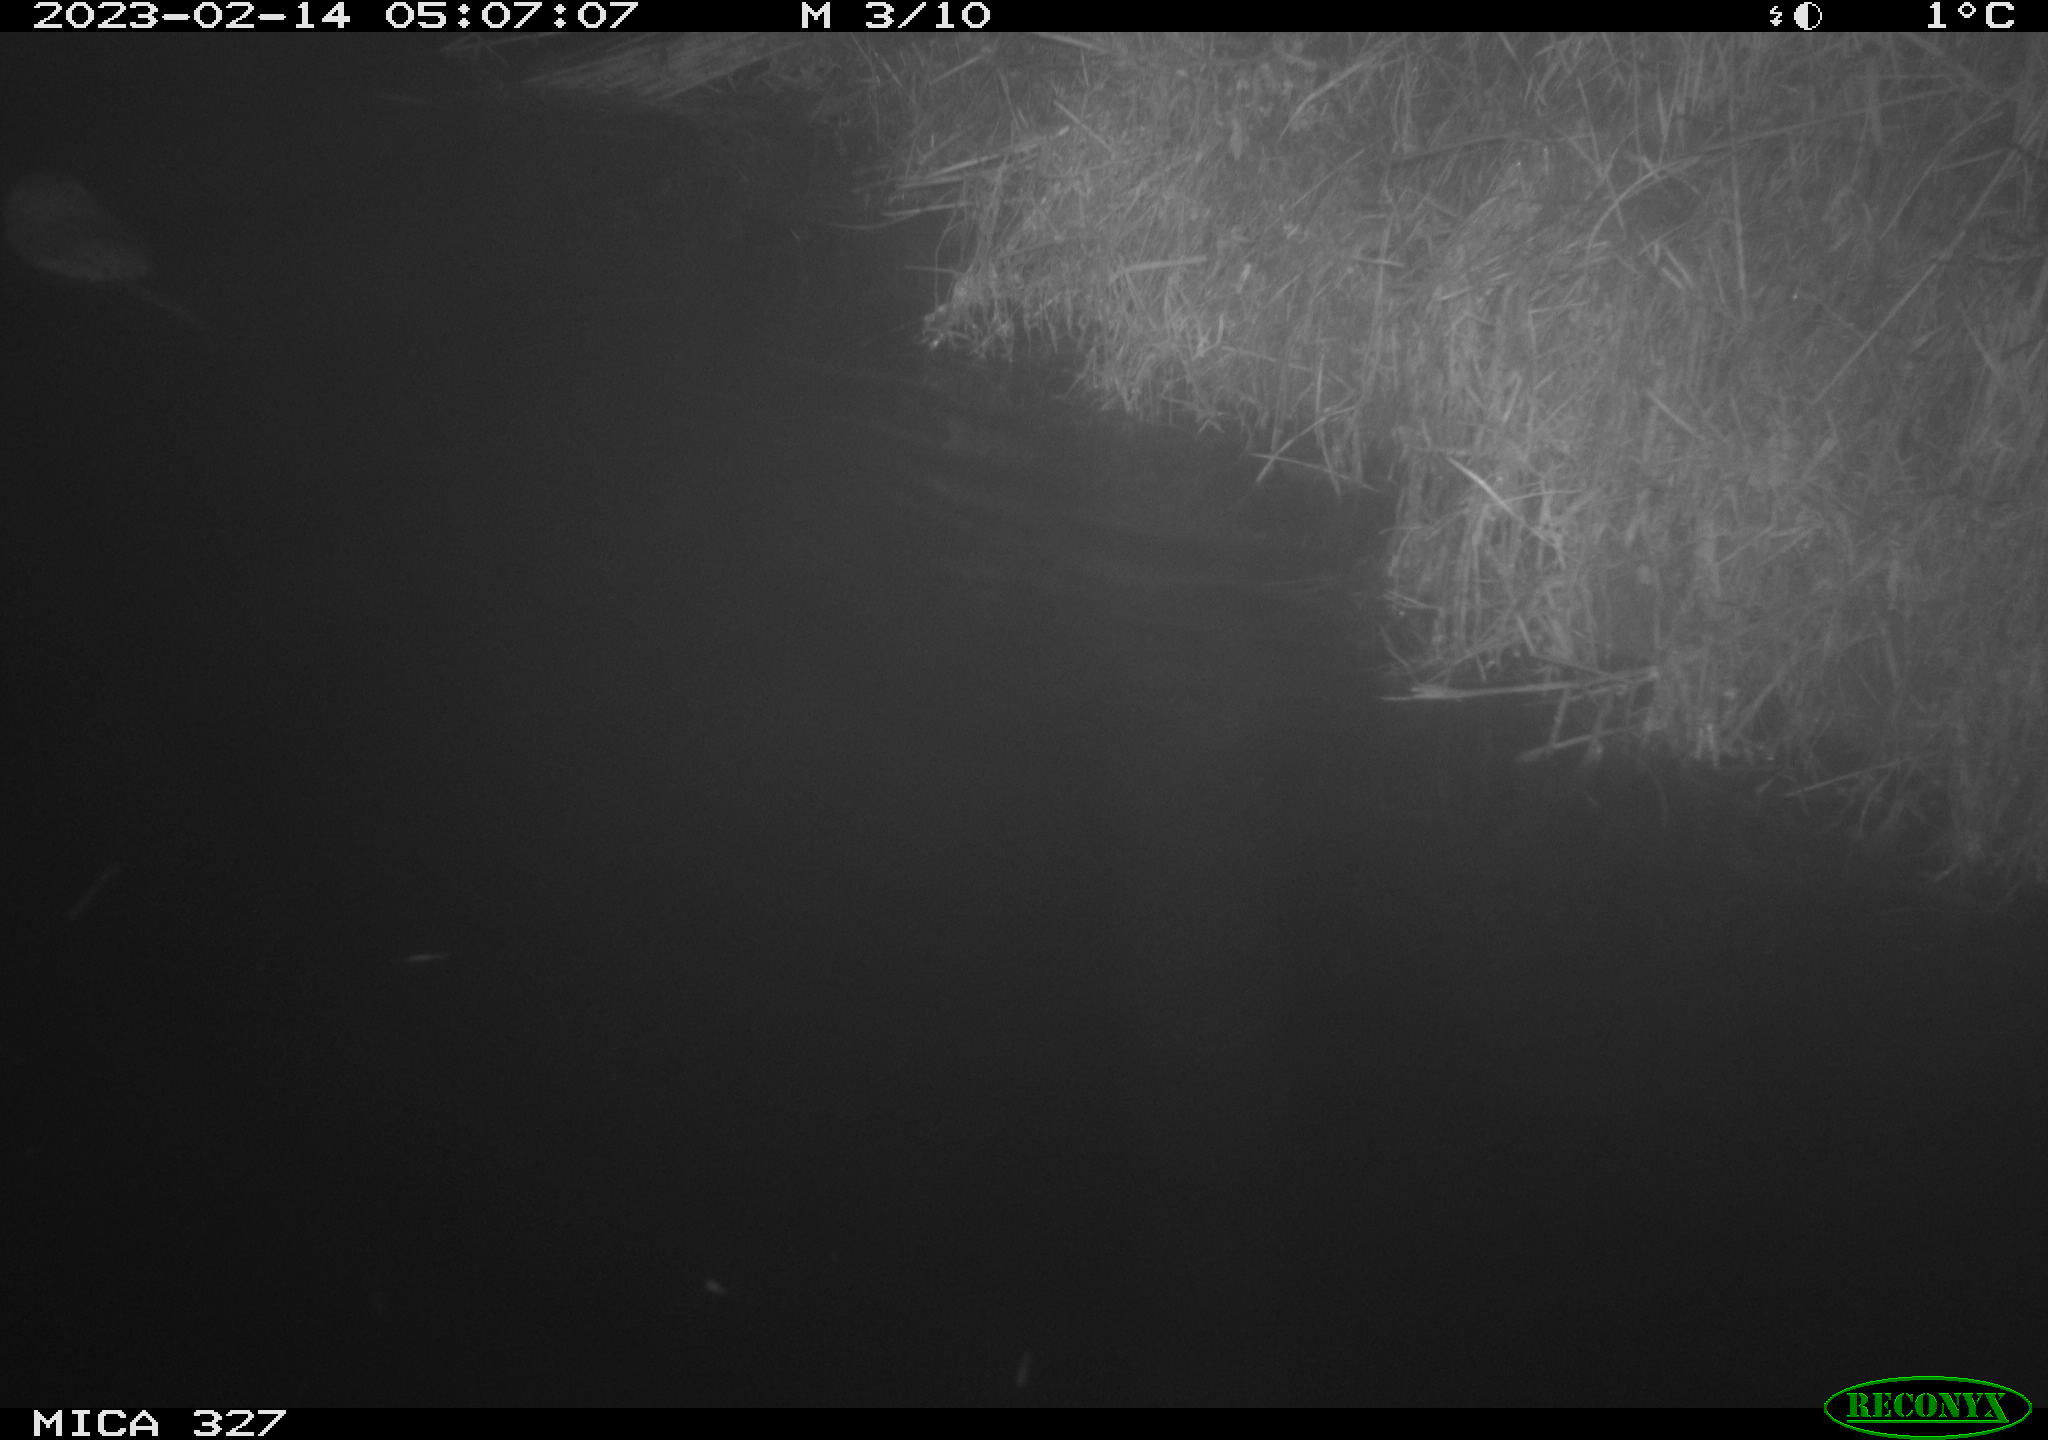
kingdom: Animalia
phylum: Chordata
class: Mammalia
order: Rodentia
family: Cricetidae
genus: Ondatra
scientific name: Ondatra zibethicus
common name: Muskrat
